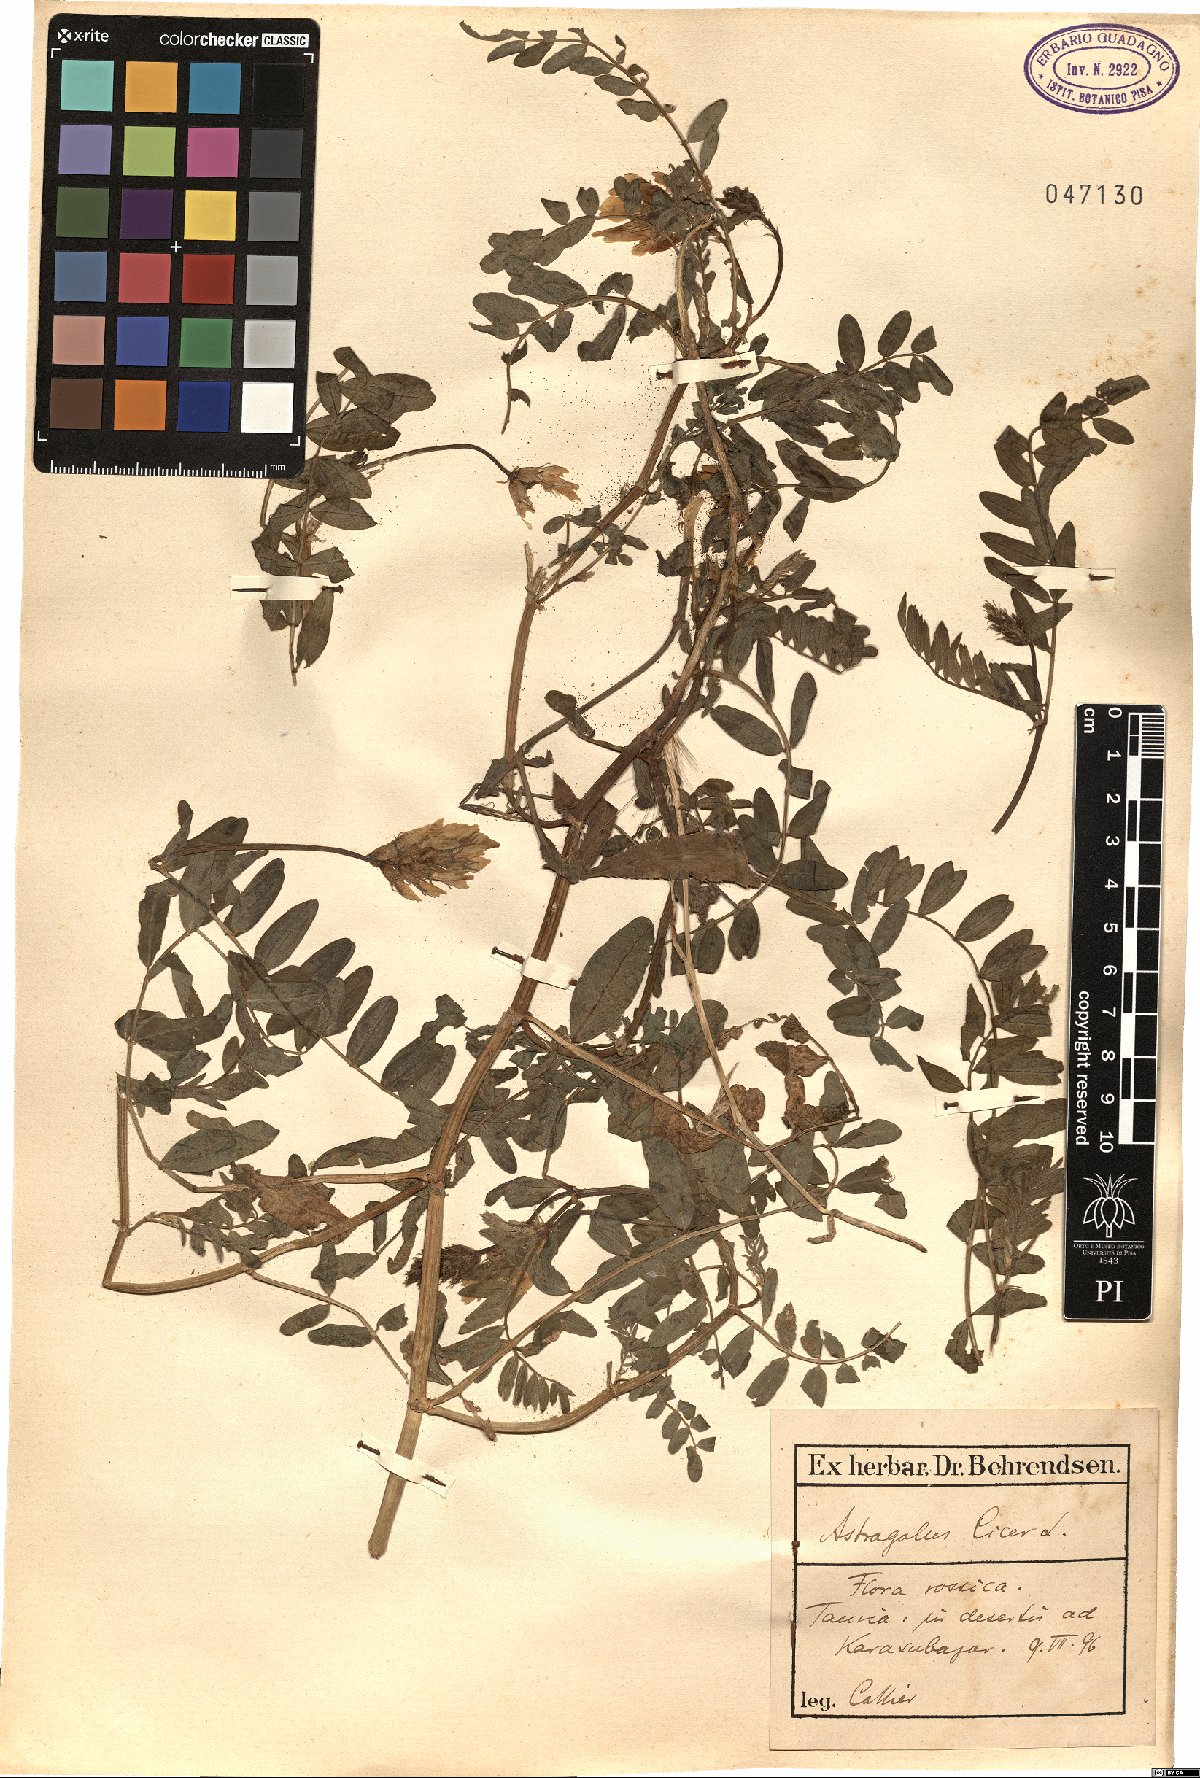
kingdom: Plantae
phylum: Tracheophyta
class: Magnoliopsida
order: Fabales
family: Fabaceae
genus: Astragalus
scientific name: Astragalus cicer
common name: Chick-pea milk-vetch
